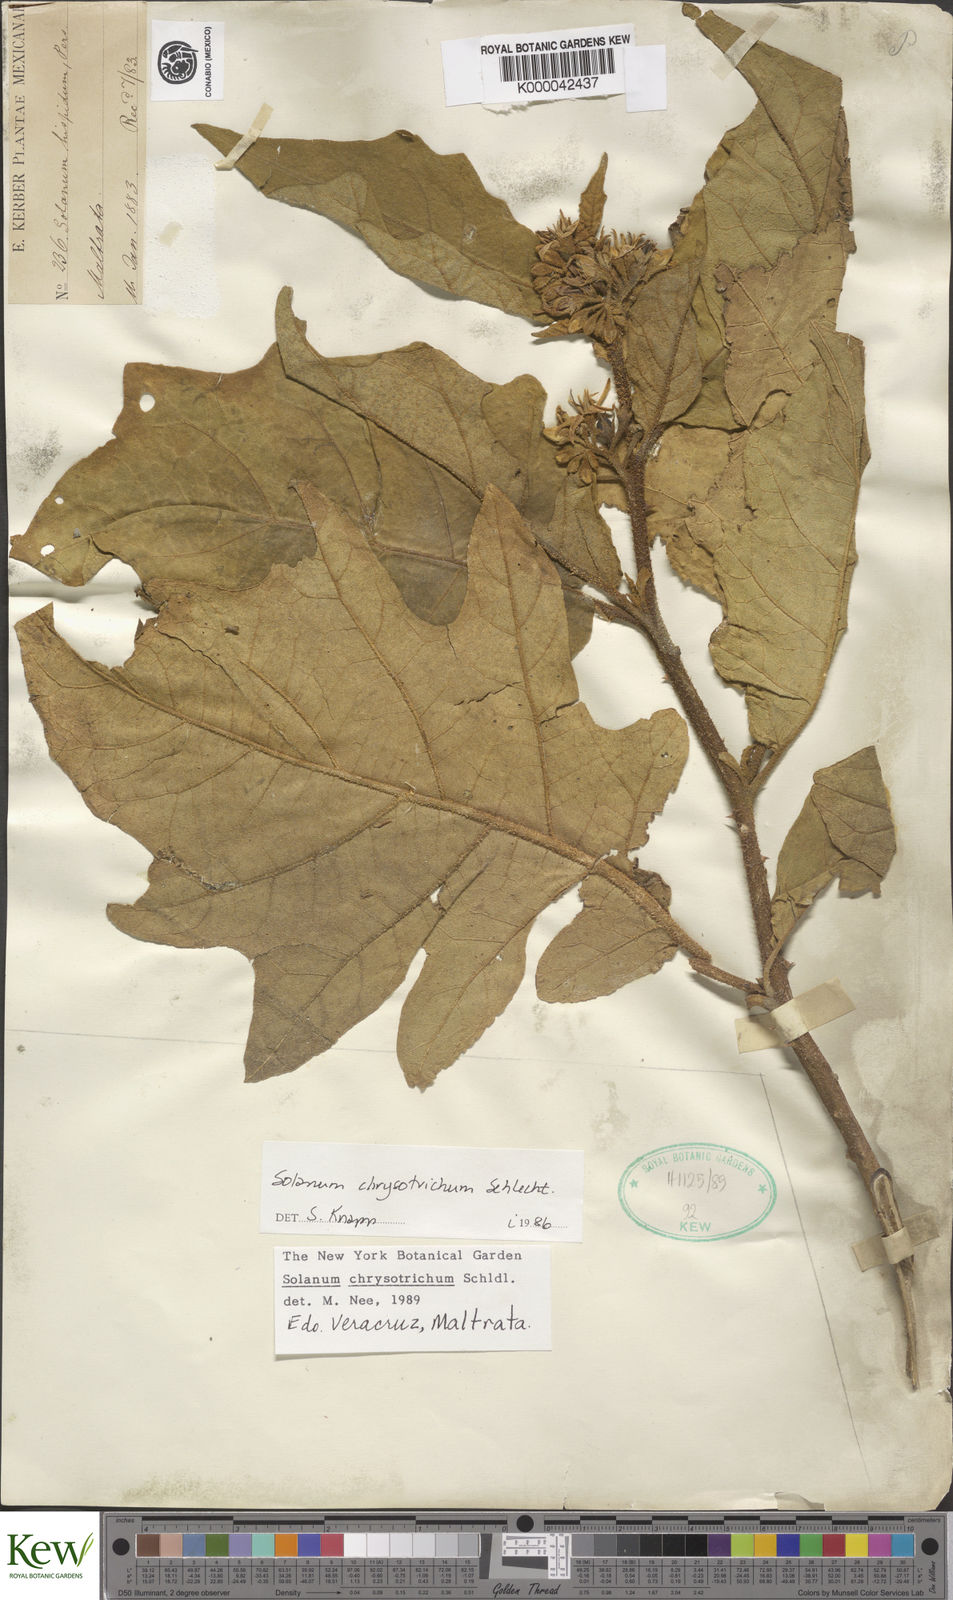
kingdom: Plantae
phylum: Tracheophyta
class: Magnoliopsida
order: Solanales
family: Solanaceae
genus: Solanum
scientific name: Solanum
